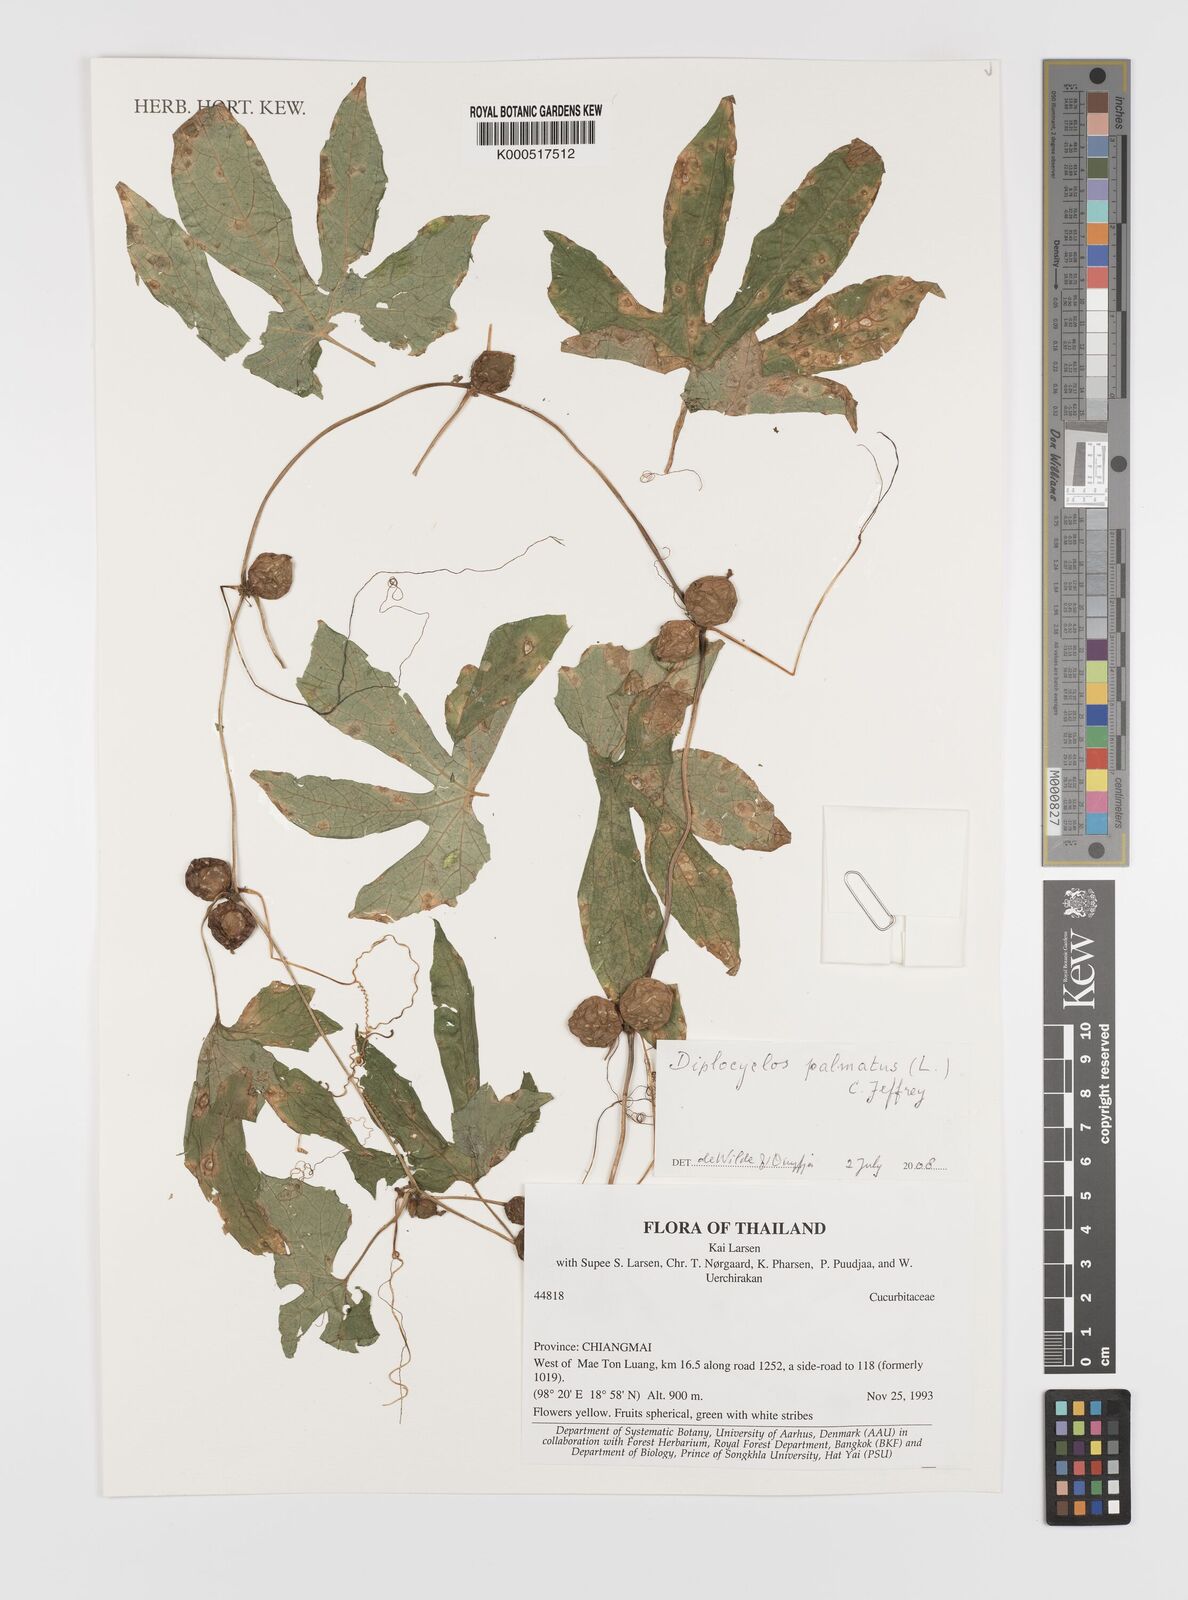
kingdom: Plantae
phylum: Tracheophyta
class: Magnoliopsida
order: Cucurbitales
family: Cucurbitaceae
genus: Diplocyclos
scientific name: Diplocyclos palmatus
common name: Striped-cucumber
